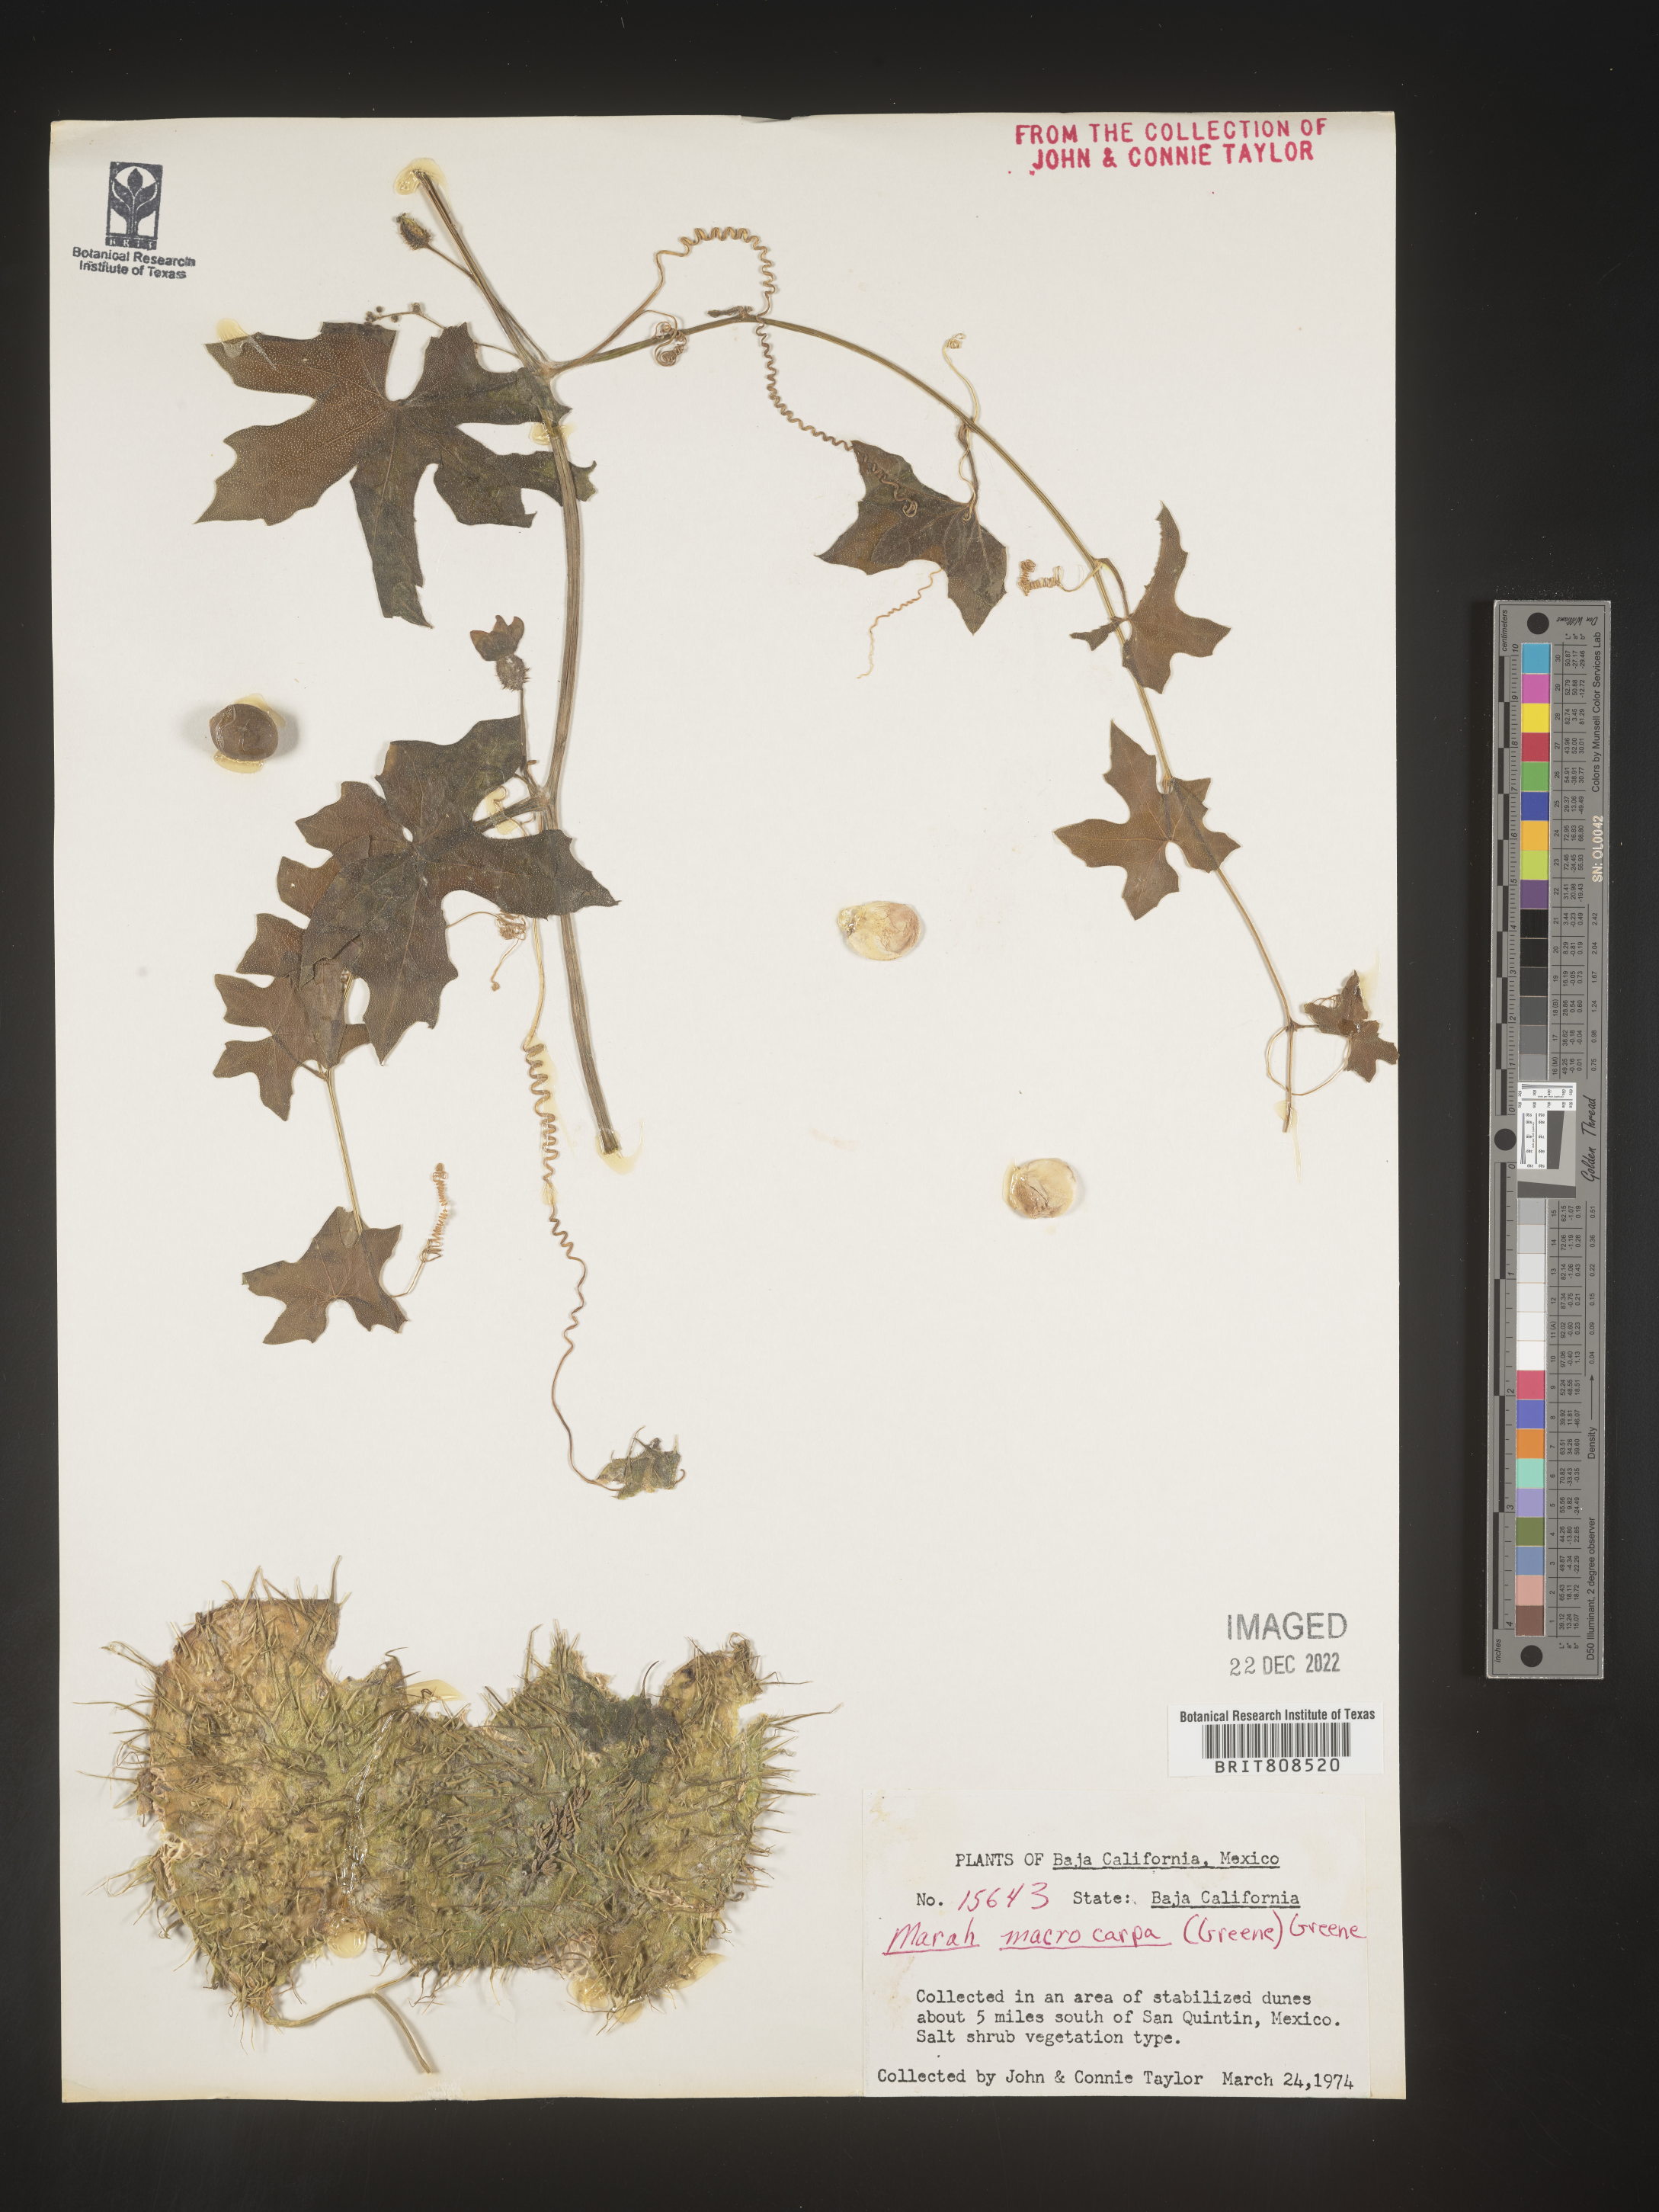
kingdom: Plantae
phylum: Tracheophyta
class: Magnoliopsida
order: Cucurbitales
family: Cucurbitaceae
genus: Marah
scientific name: Marah macrocarpa
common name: Cucamonga manroot
